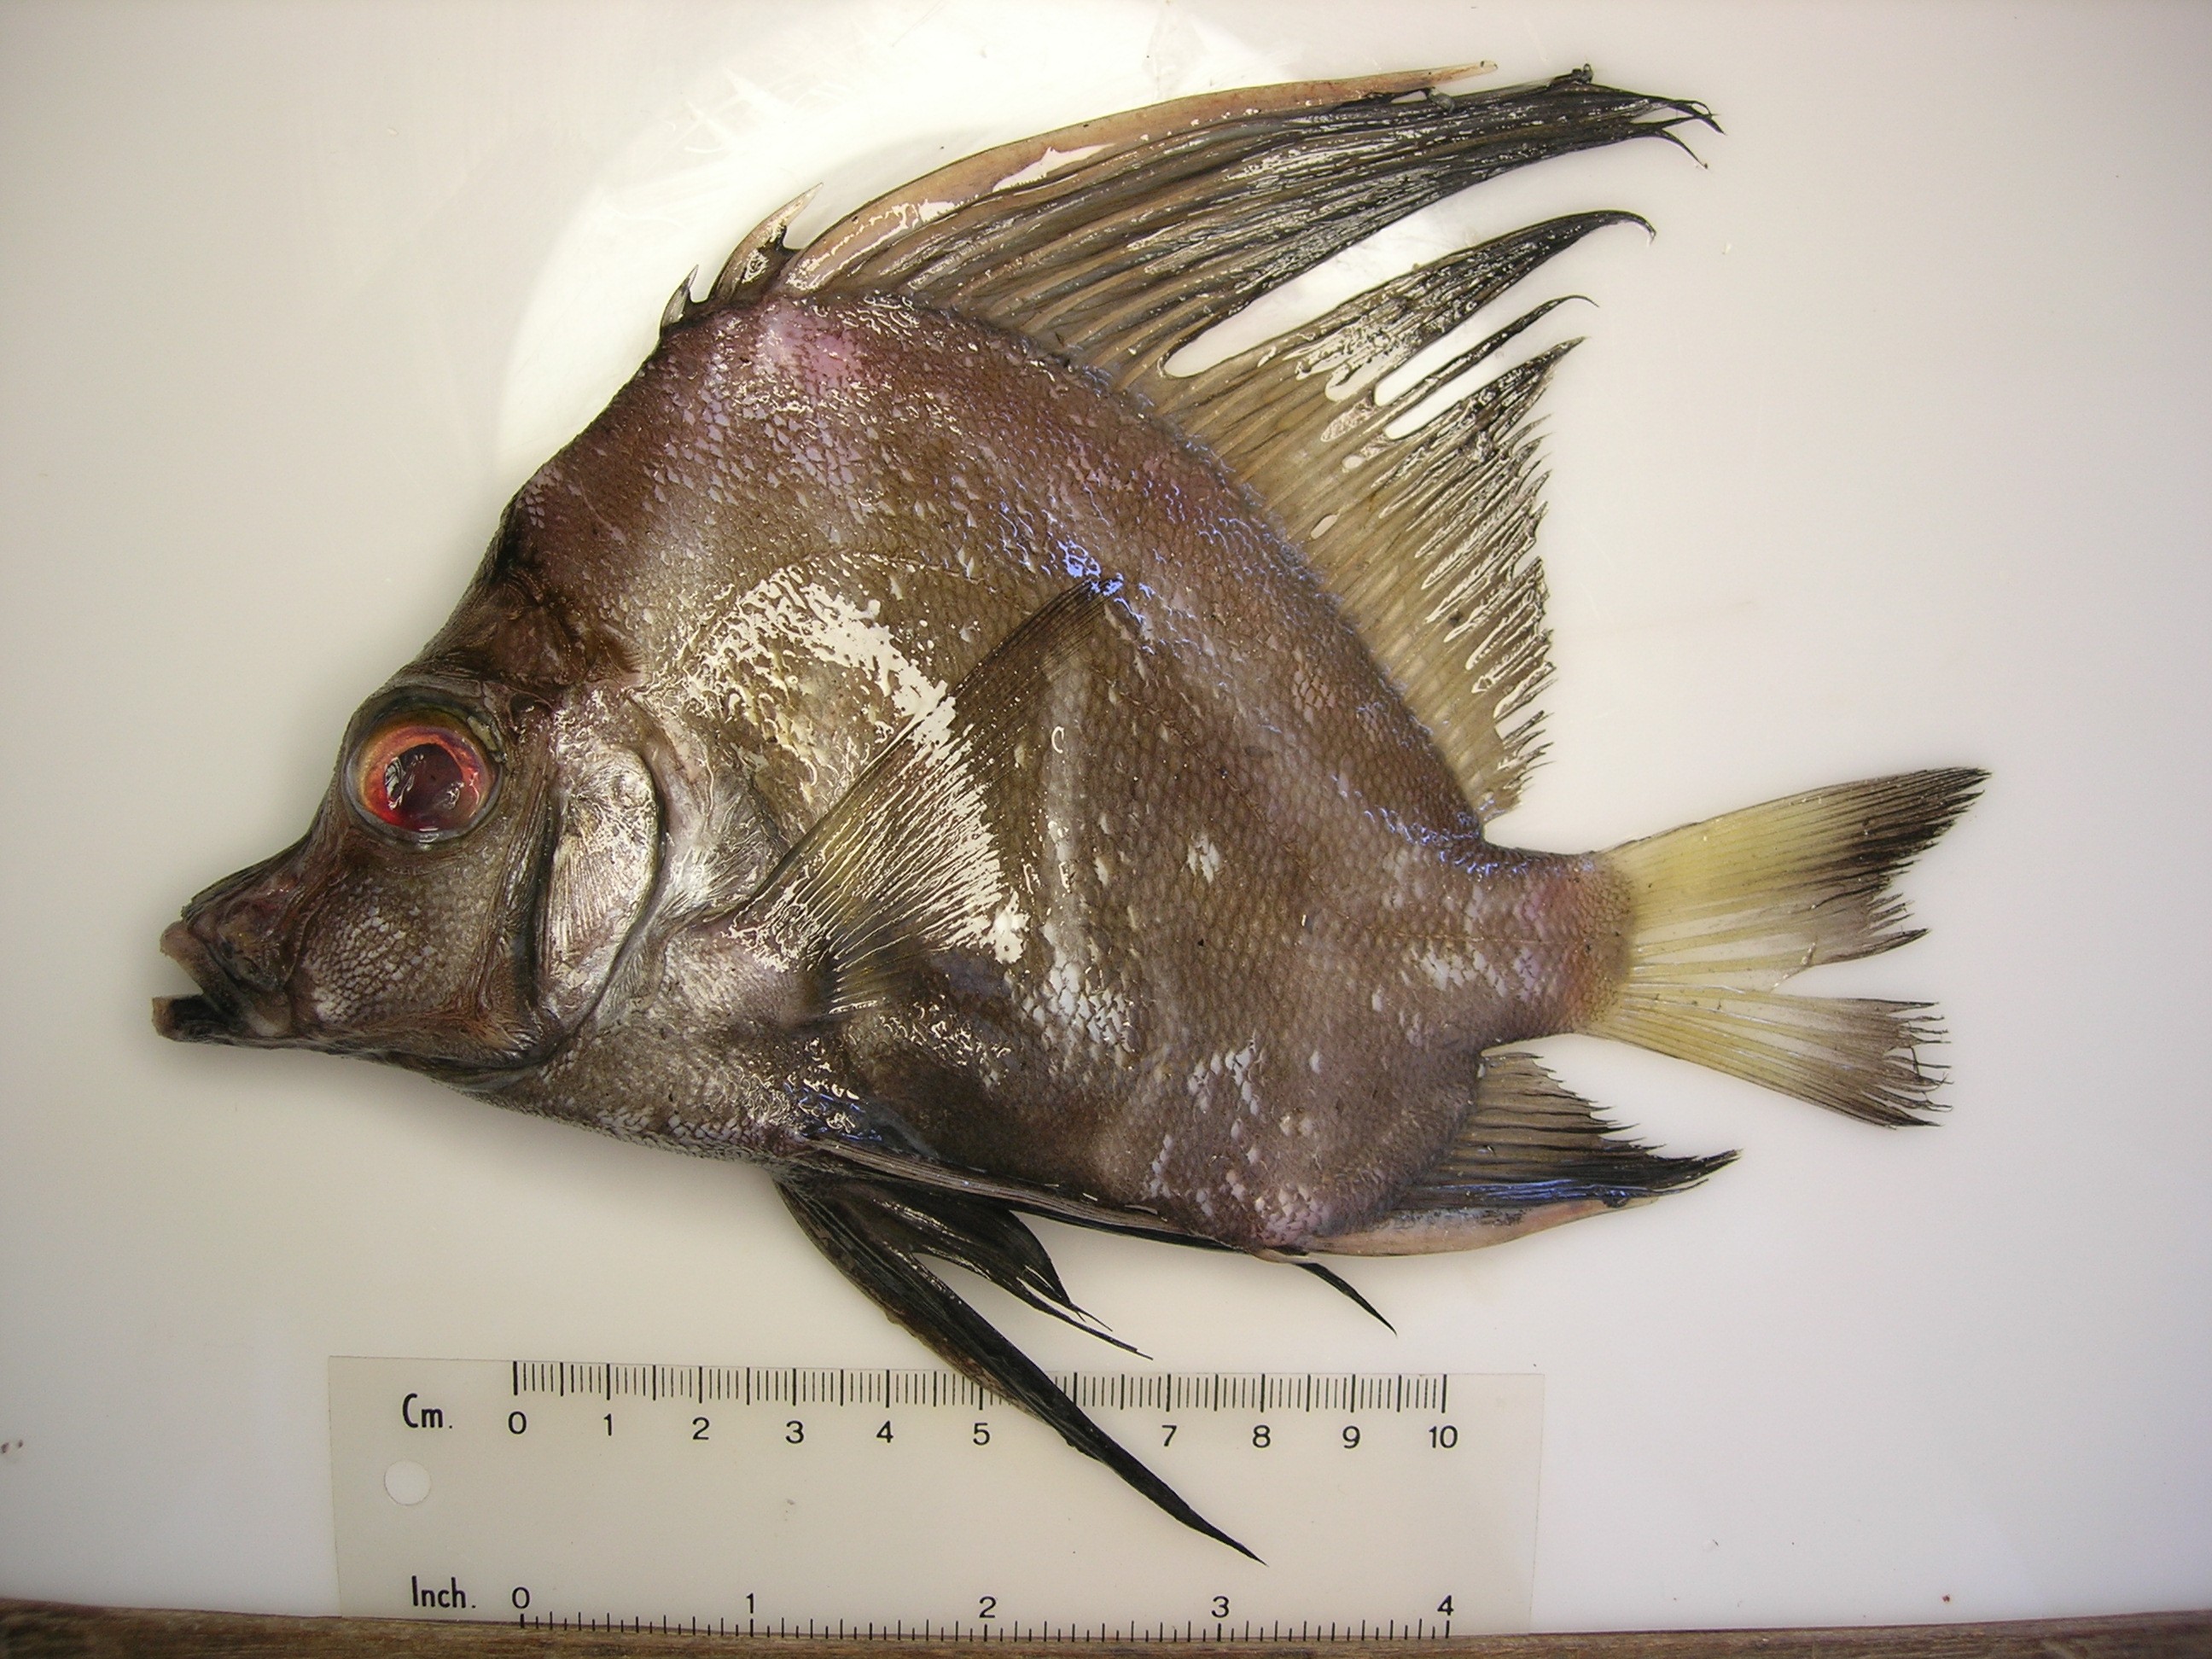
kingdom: Animalia
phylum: Chordata
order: Perciformes
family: Pentacerotidae
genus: Histiopterus
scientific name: Histiopterus typus
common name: Sailfin armourhead
